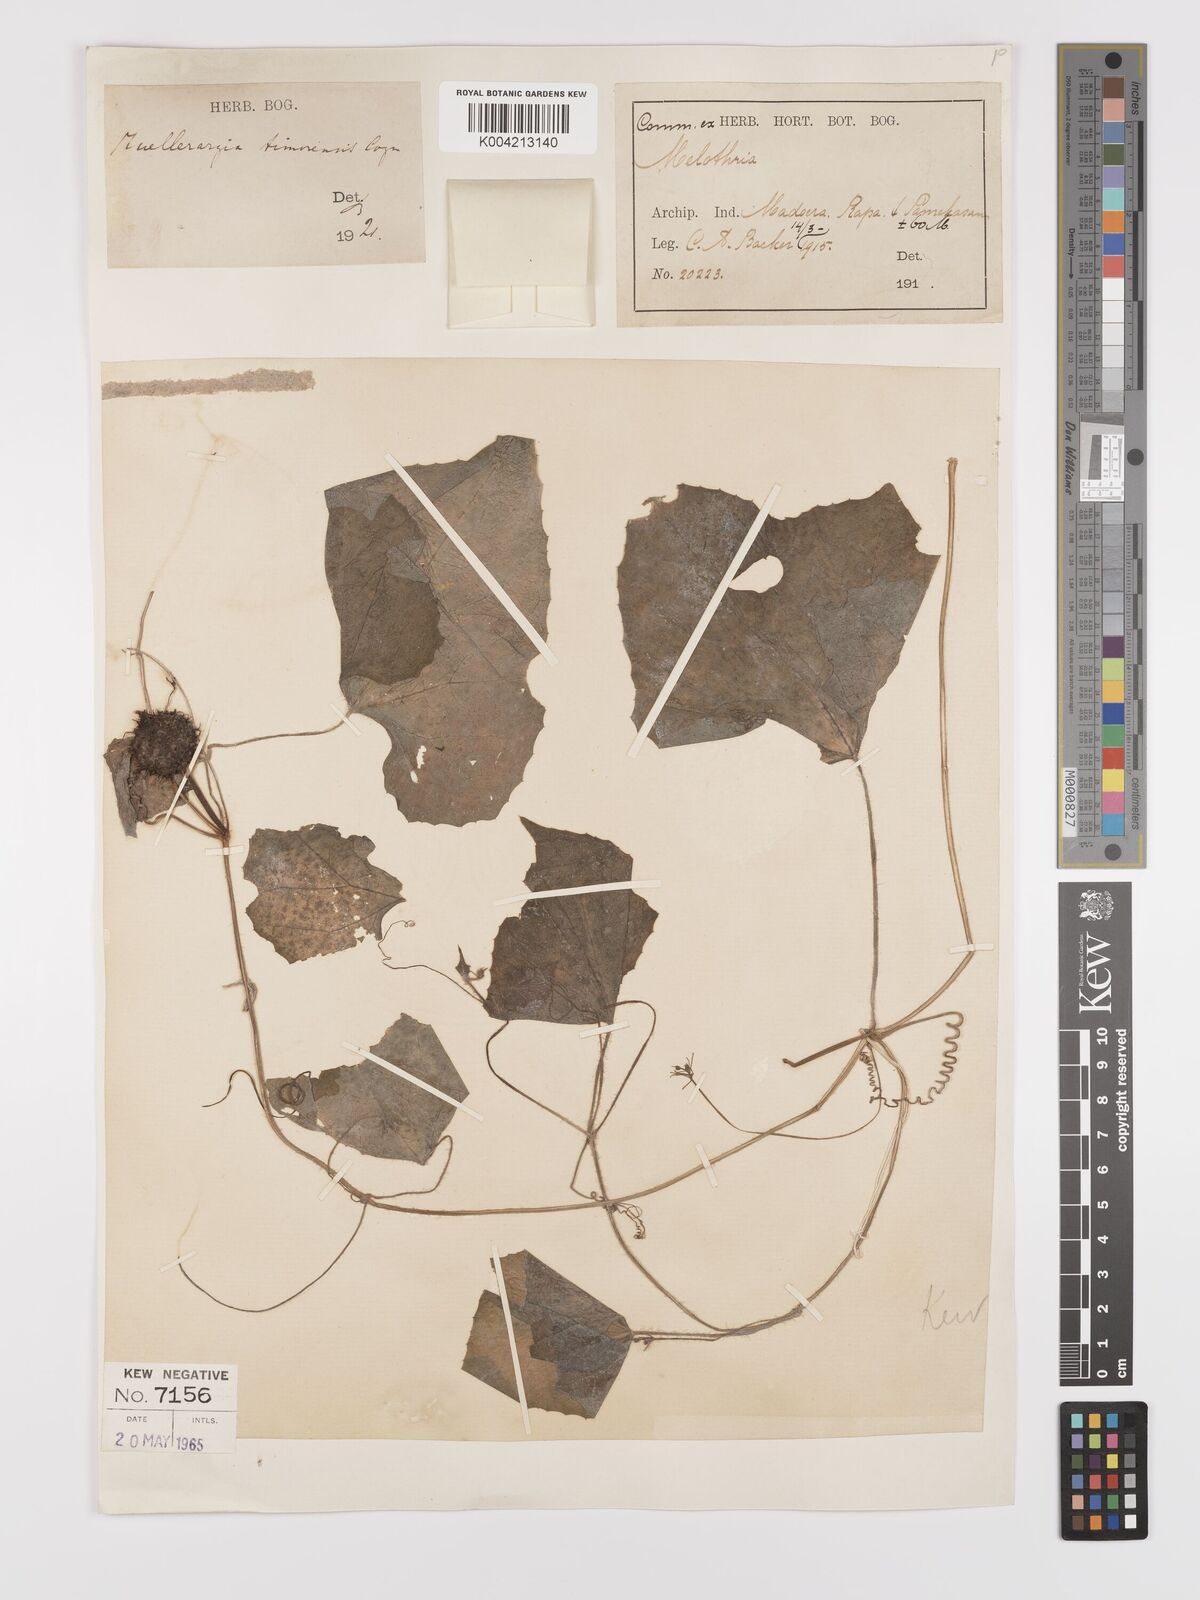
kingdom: Plantae
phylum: Tracheophyta
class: Magnoliopsida
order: Cucurbitales
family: Cucurbitaceae
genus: Muellerargia
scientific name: Muellerargia
